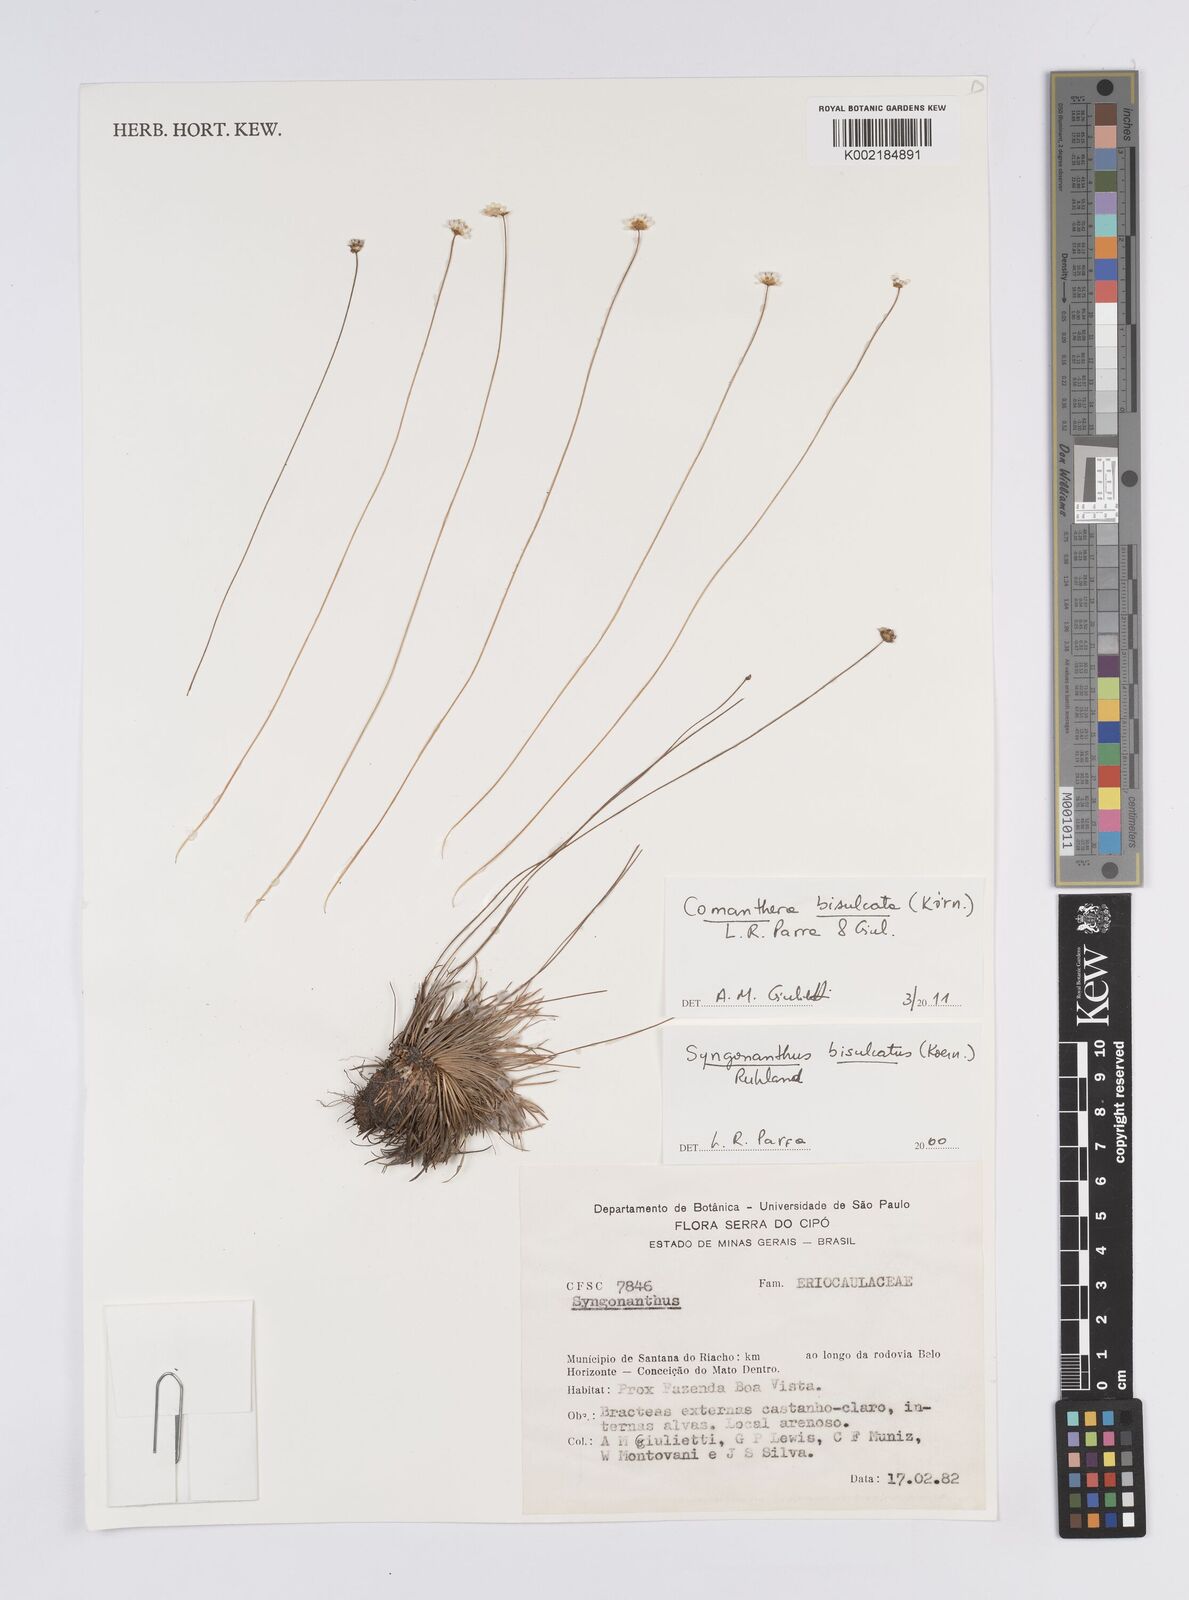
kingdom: Plantae
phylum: Tracheophyta
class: Liliopsida
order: Poales
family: Eriocaulaceae
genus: Comanthera
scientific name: Comanthera bisulcata
